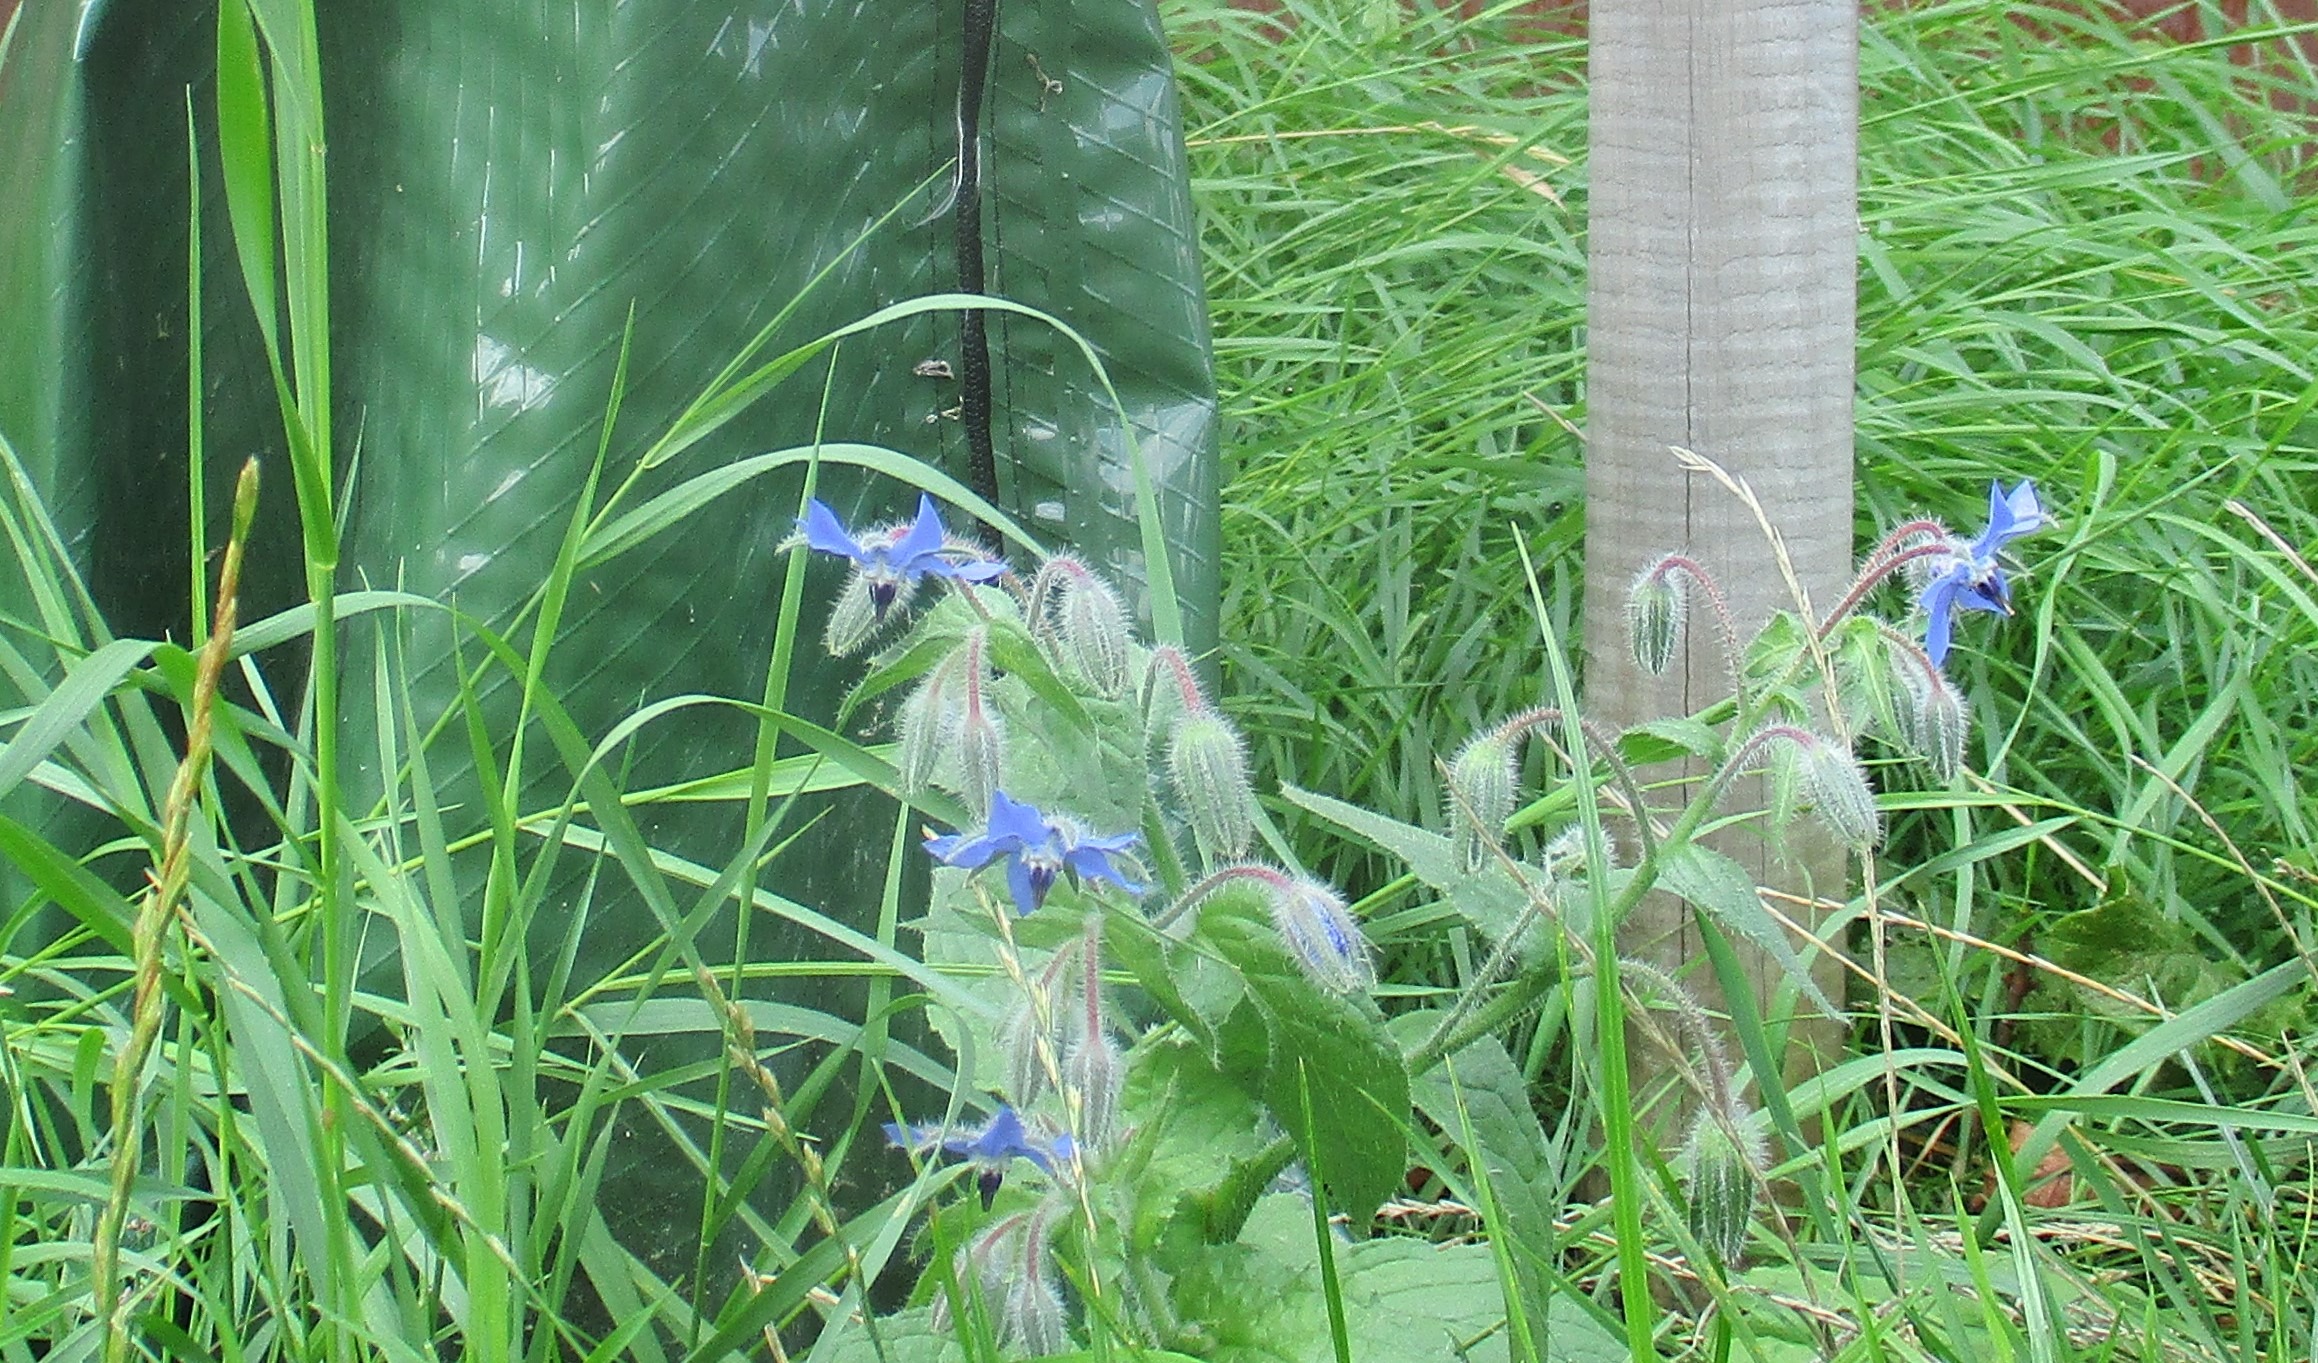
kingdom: Plantae
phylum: Tracheophyta
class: Magnoliopsida
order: Boraginales
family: Boraginaceae
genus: Borago
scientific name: Borago officinalis
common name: Hjulkrone
